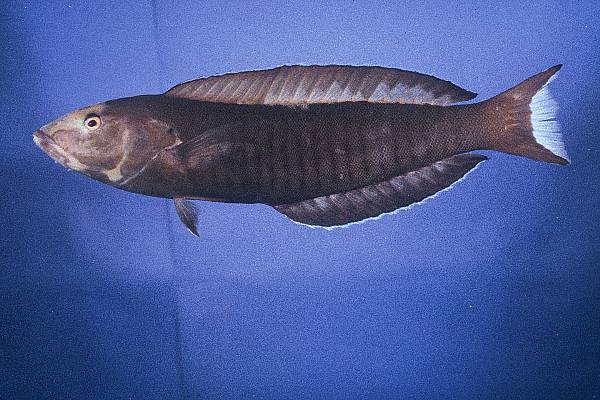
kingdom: Animalia
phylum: Chordata
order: Perciformes
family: Labridae
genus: Hologymnosus
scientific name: Hologymnosus annulatus
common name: Ring wrasse
